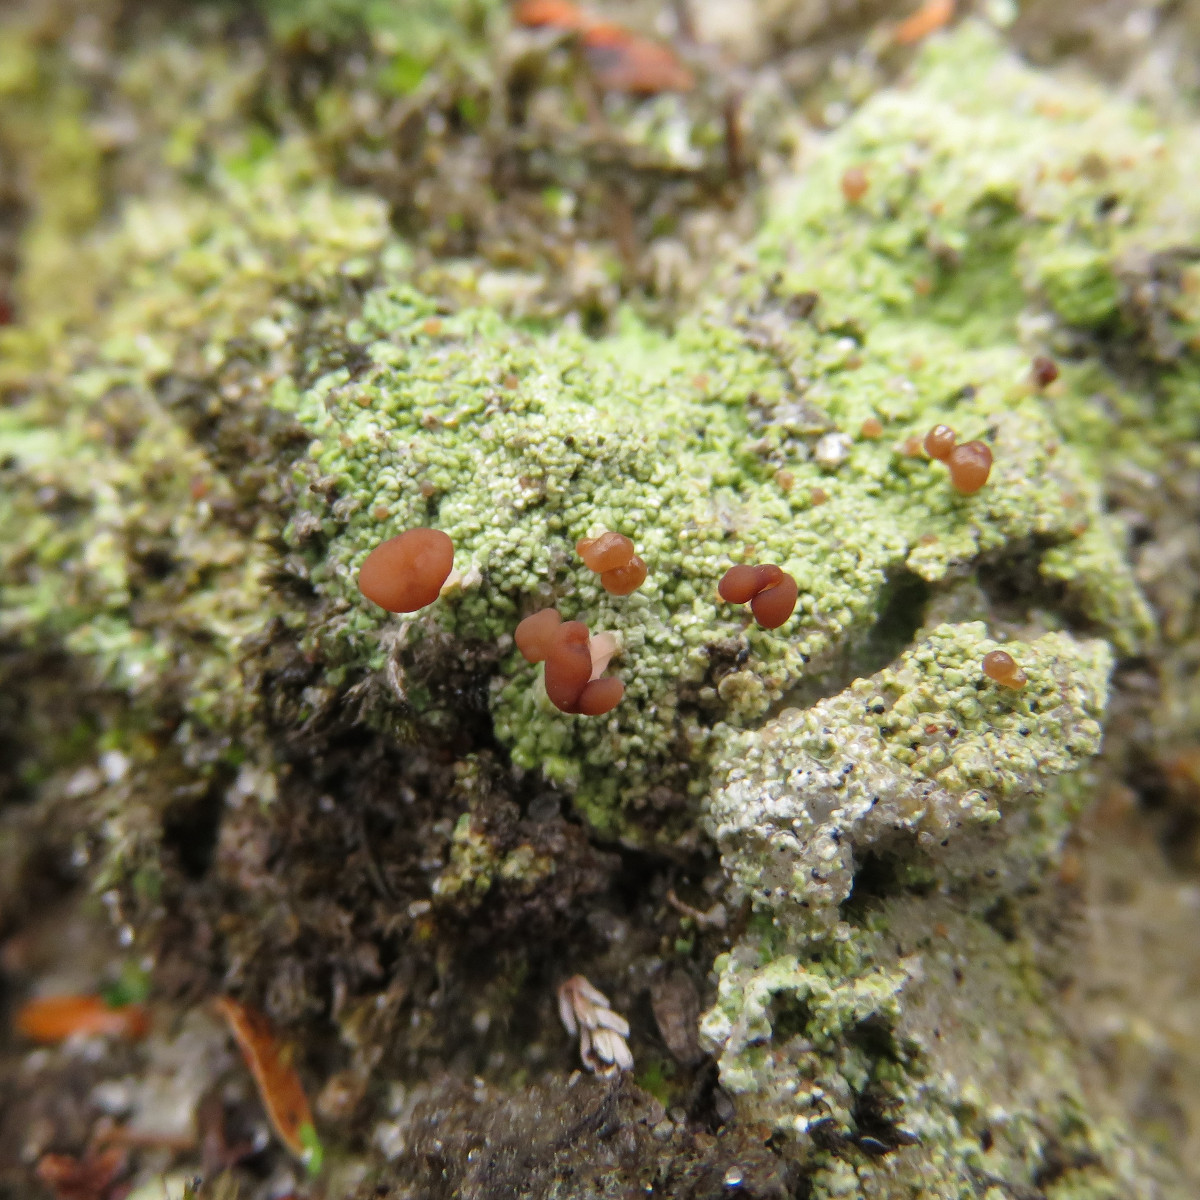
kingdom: Fungi
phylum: Ascomycota
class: Lecanoromycetes
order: Baeomycetales
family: Baeomycetaceae
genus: Baeomyces
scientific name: Baeomyces rufus
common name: rødbrun svampelav
